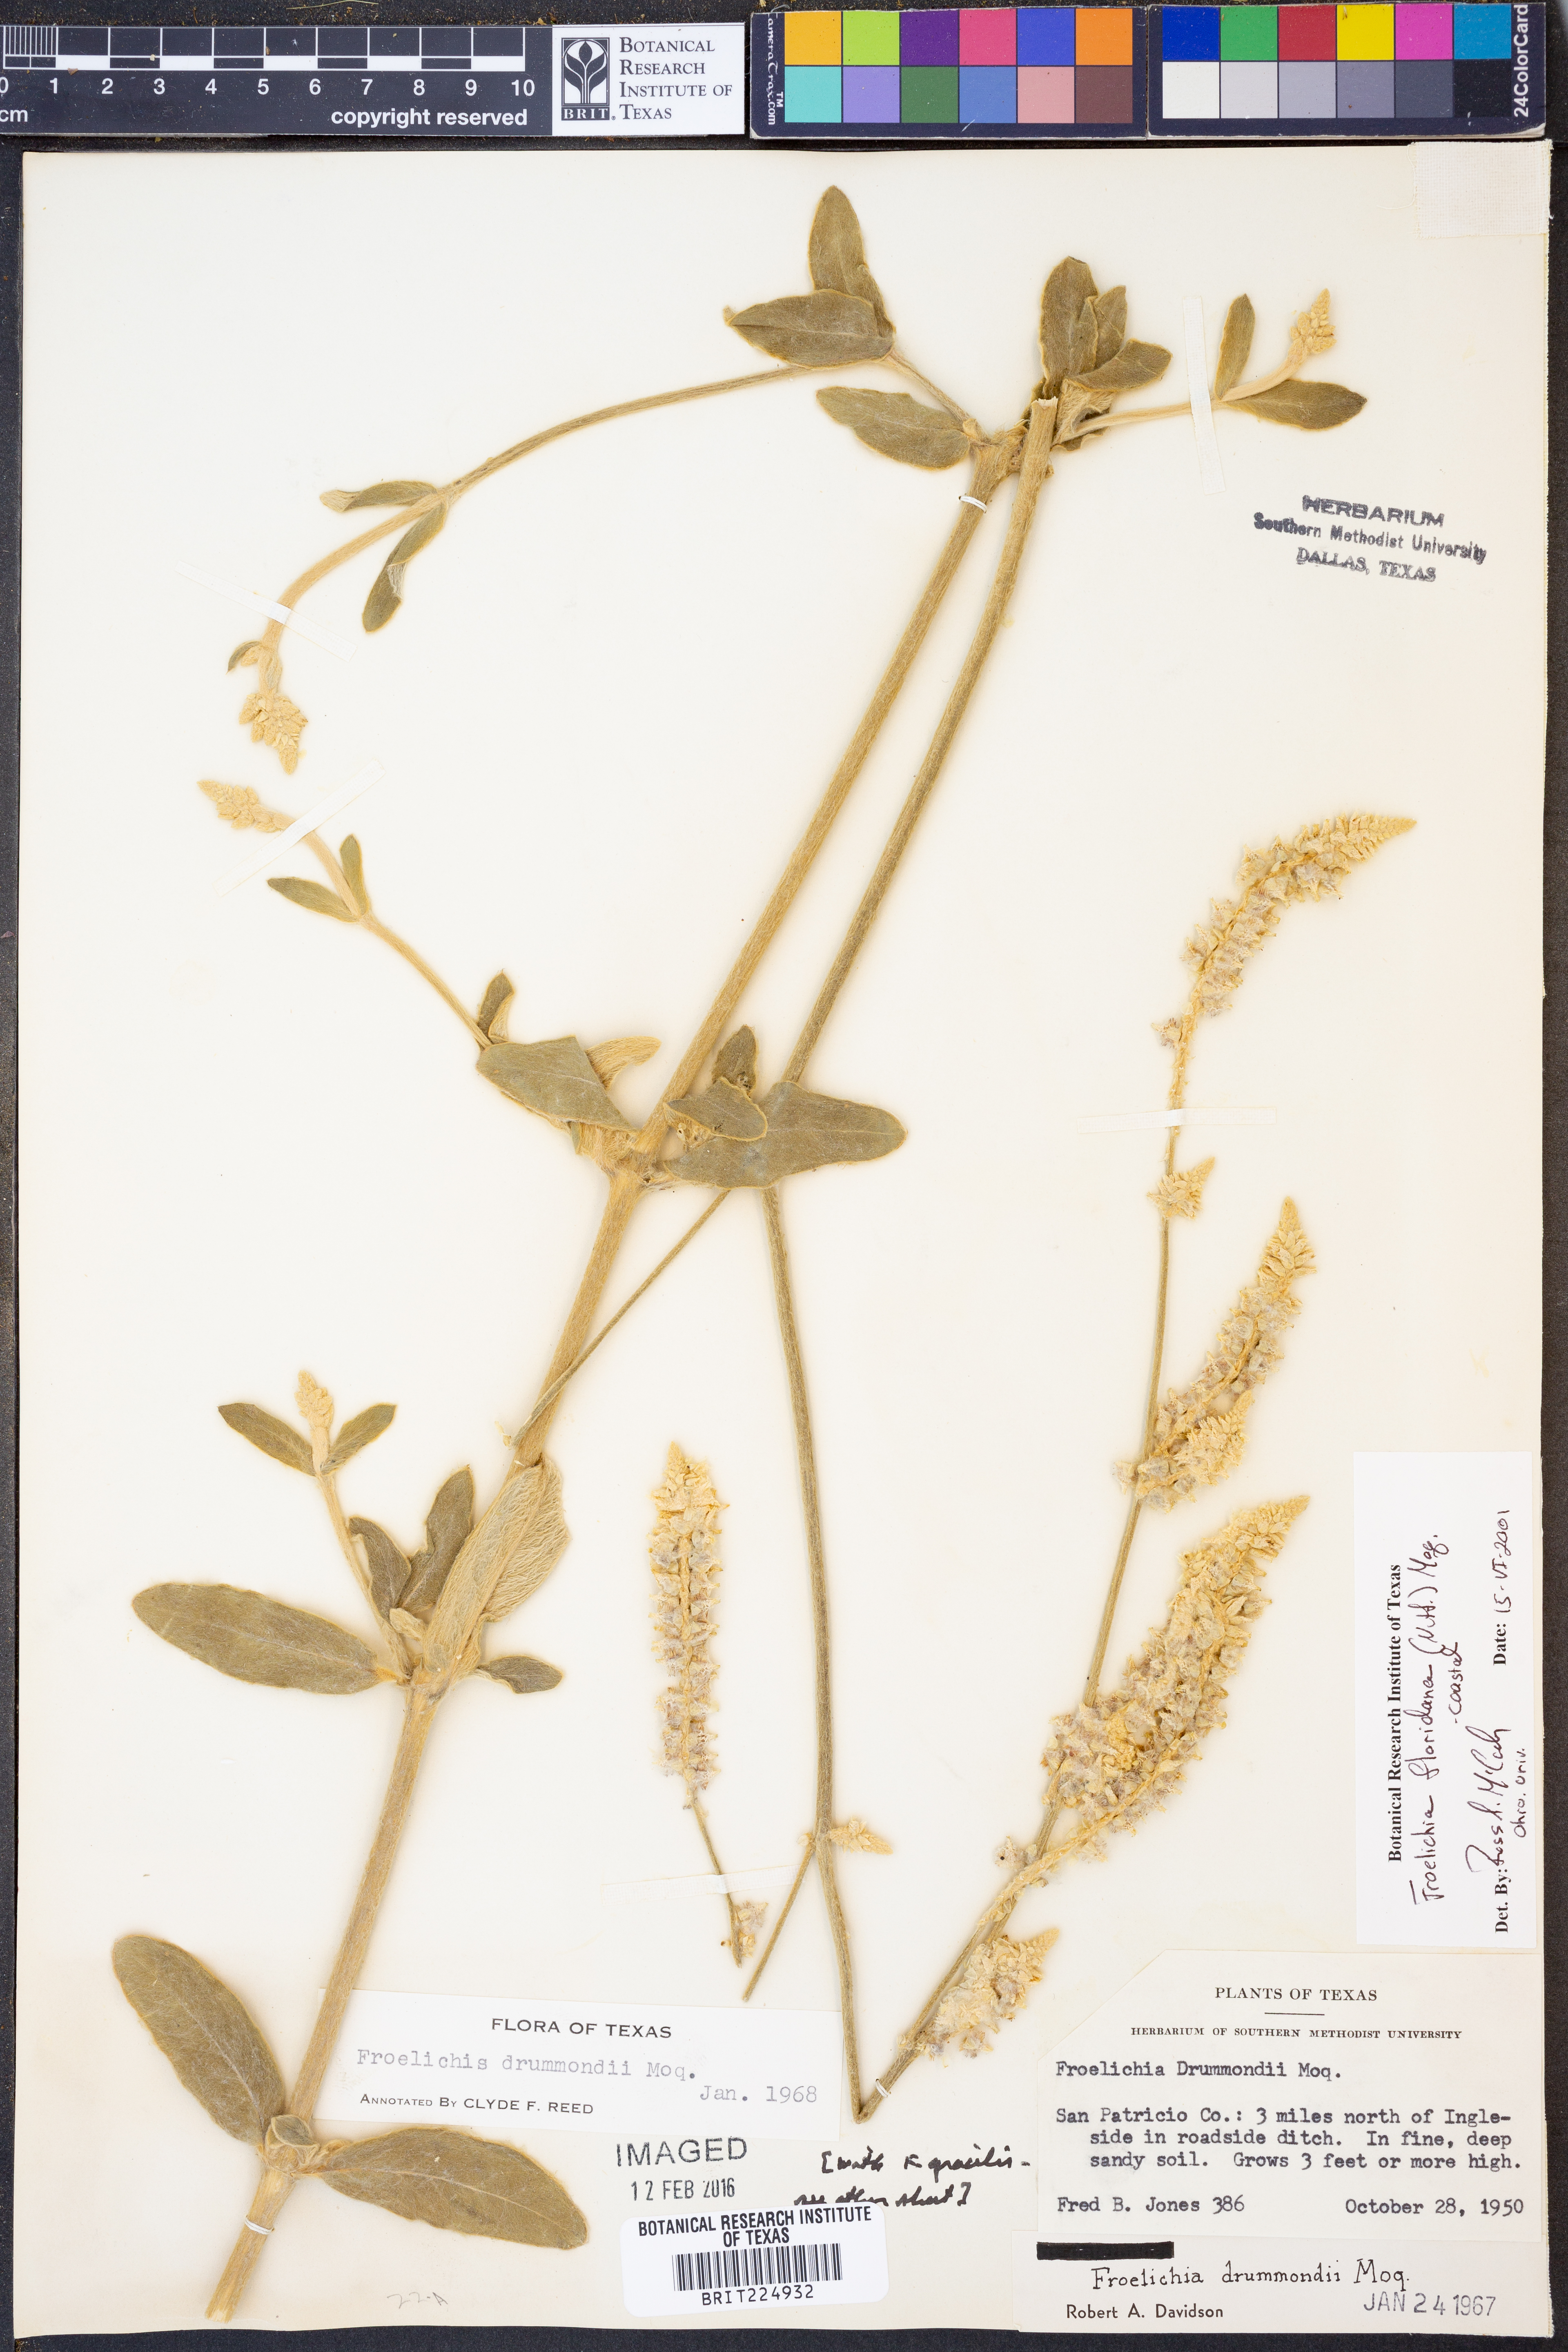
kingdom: Plantae
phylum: Tracheophyta
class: Magnoliopsida
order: Caryophyllales
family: Amaranthaceae
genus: Froelichia
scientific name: Froelichia floridana
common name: Florida snake-cotton
